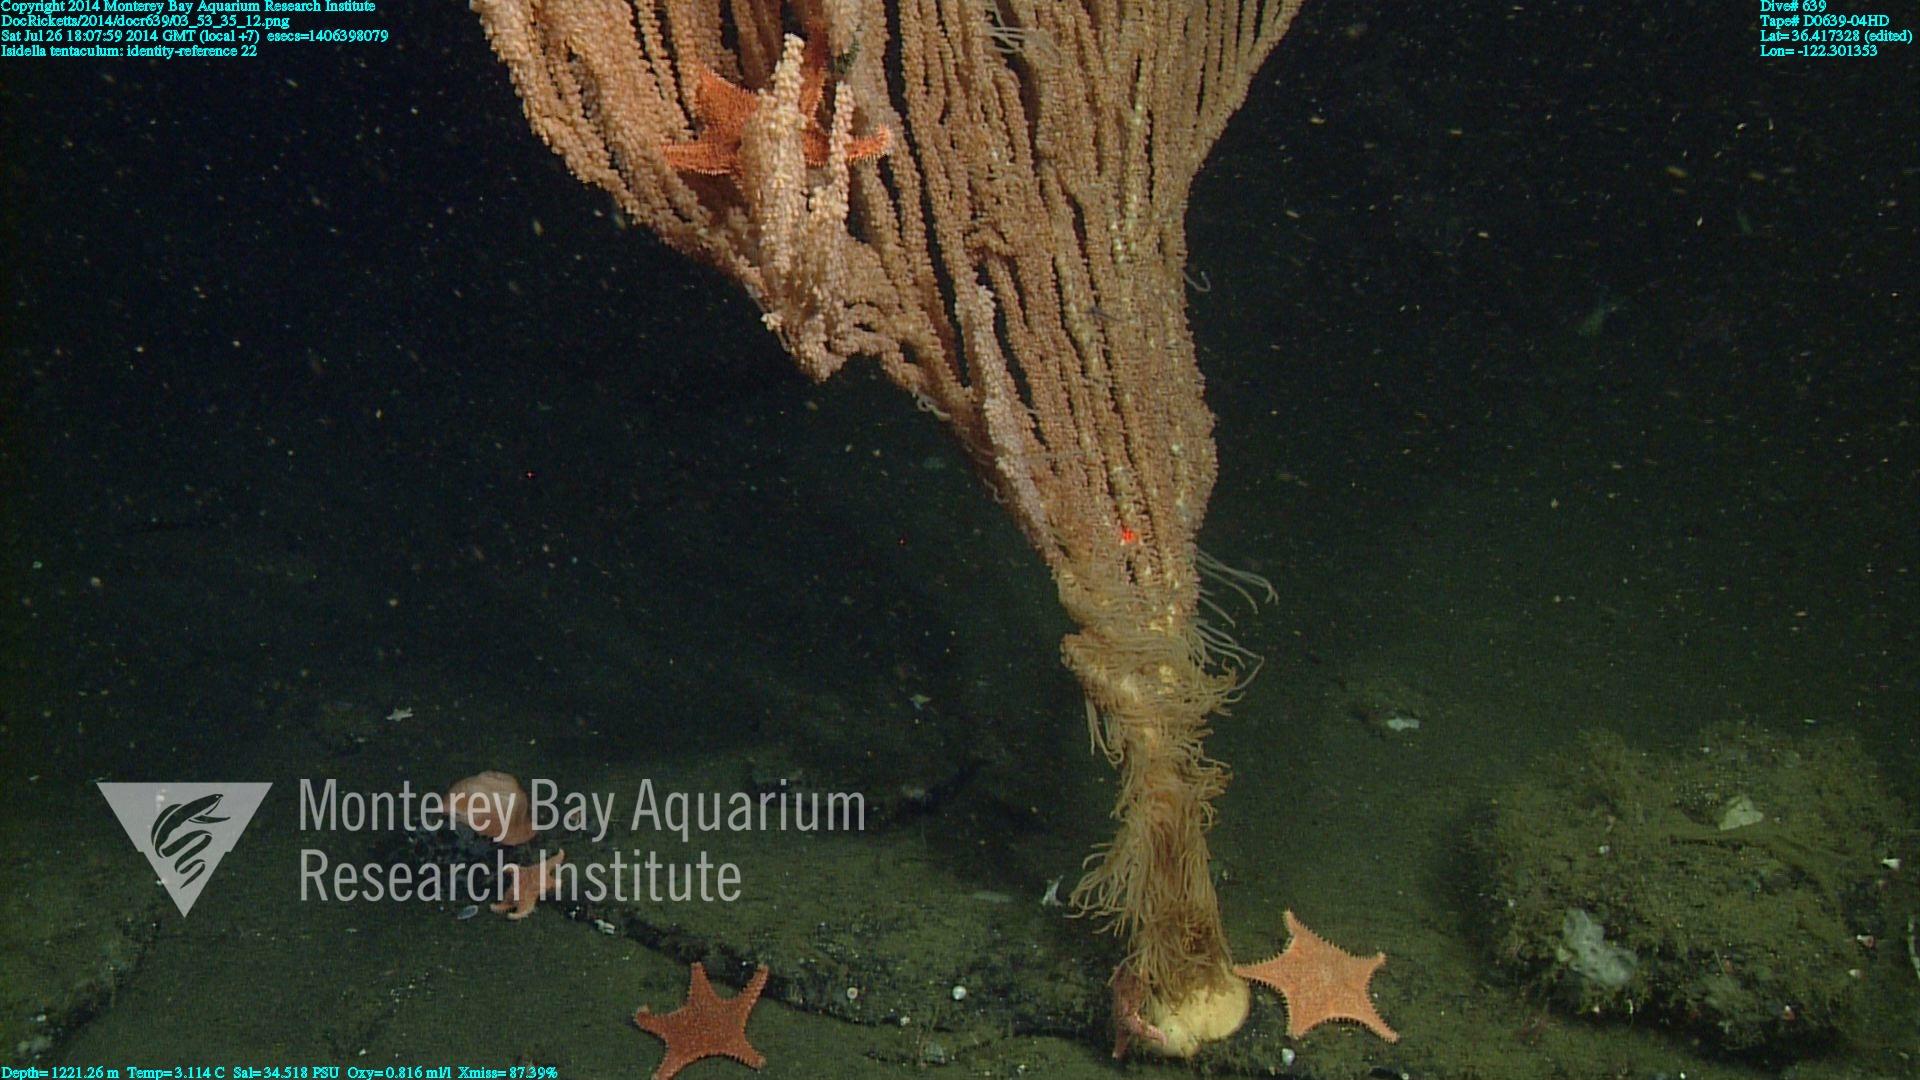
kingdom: Animalia
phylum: Cnidaria
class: Anthozoa
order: Scleralcyonacea
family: Keratoisididae
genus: Isidella
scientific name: Isidella tentaculum
